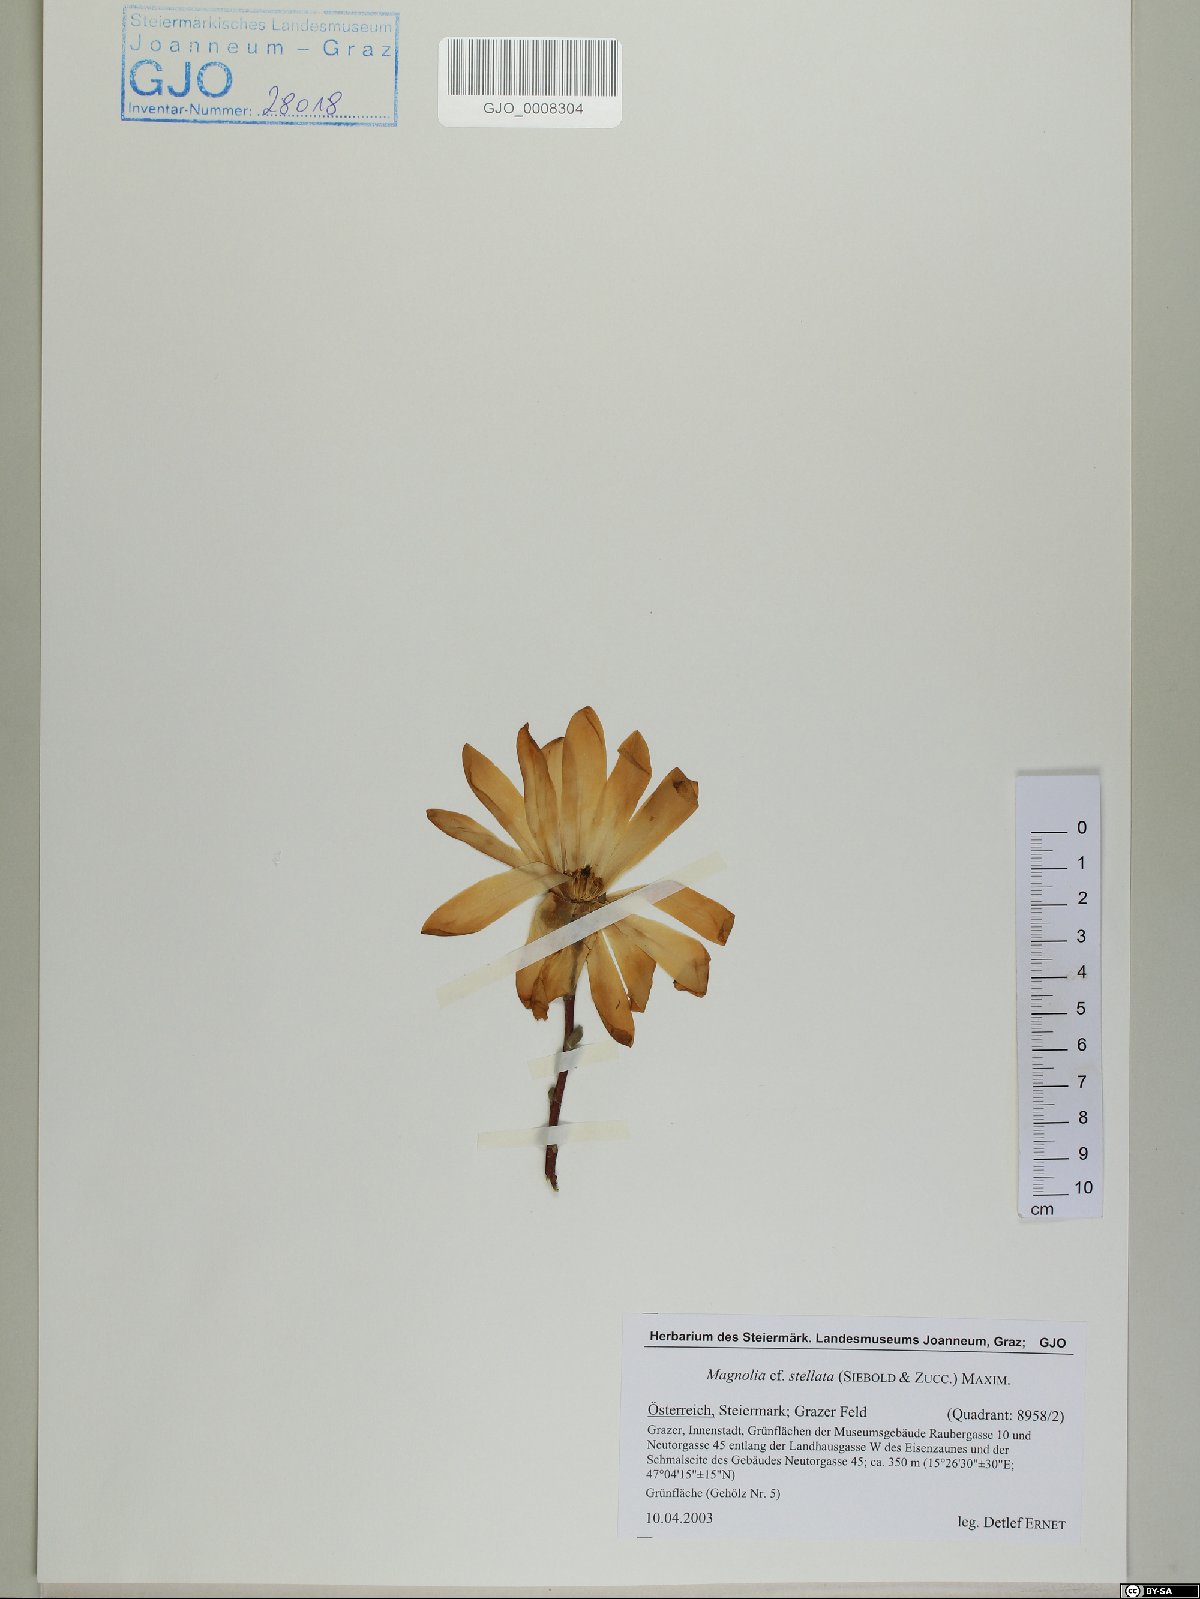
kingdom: Plantae
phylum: Tracheophyta
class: Magnoliopsida
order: Magnoliales
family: Magnoliaceae
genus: Magnolia
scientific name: Magnolia stellata
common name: Star magnolia
